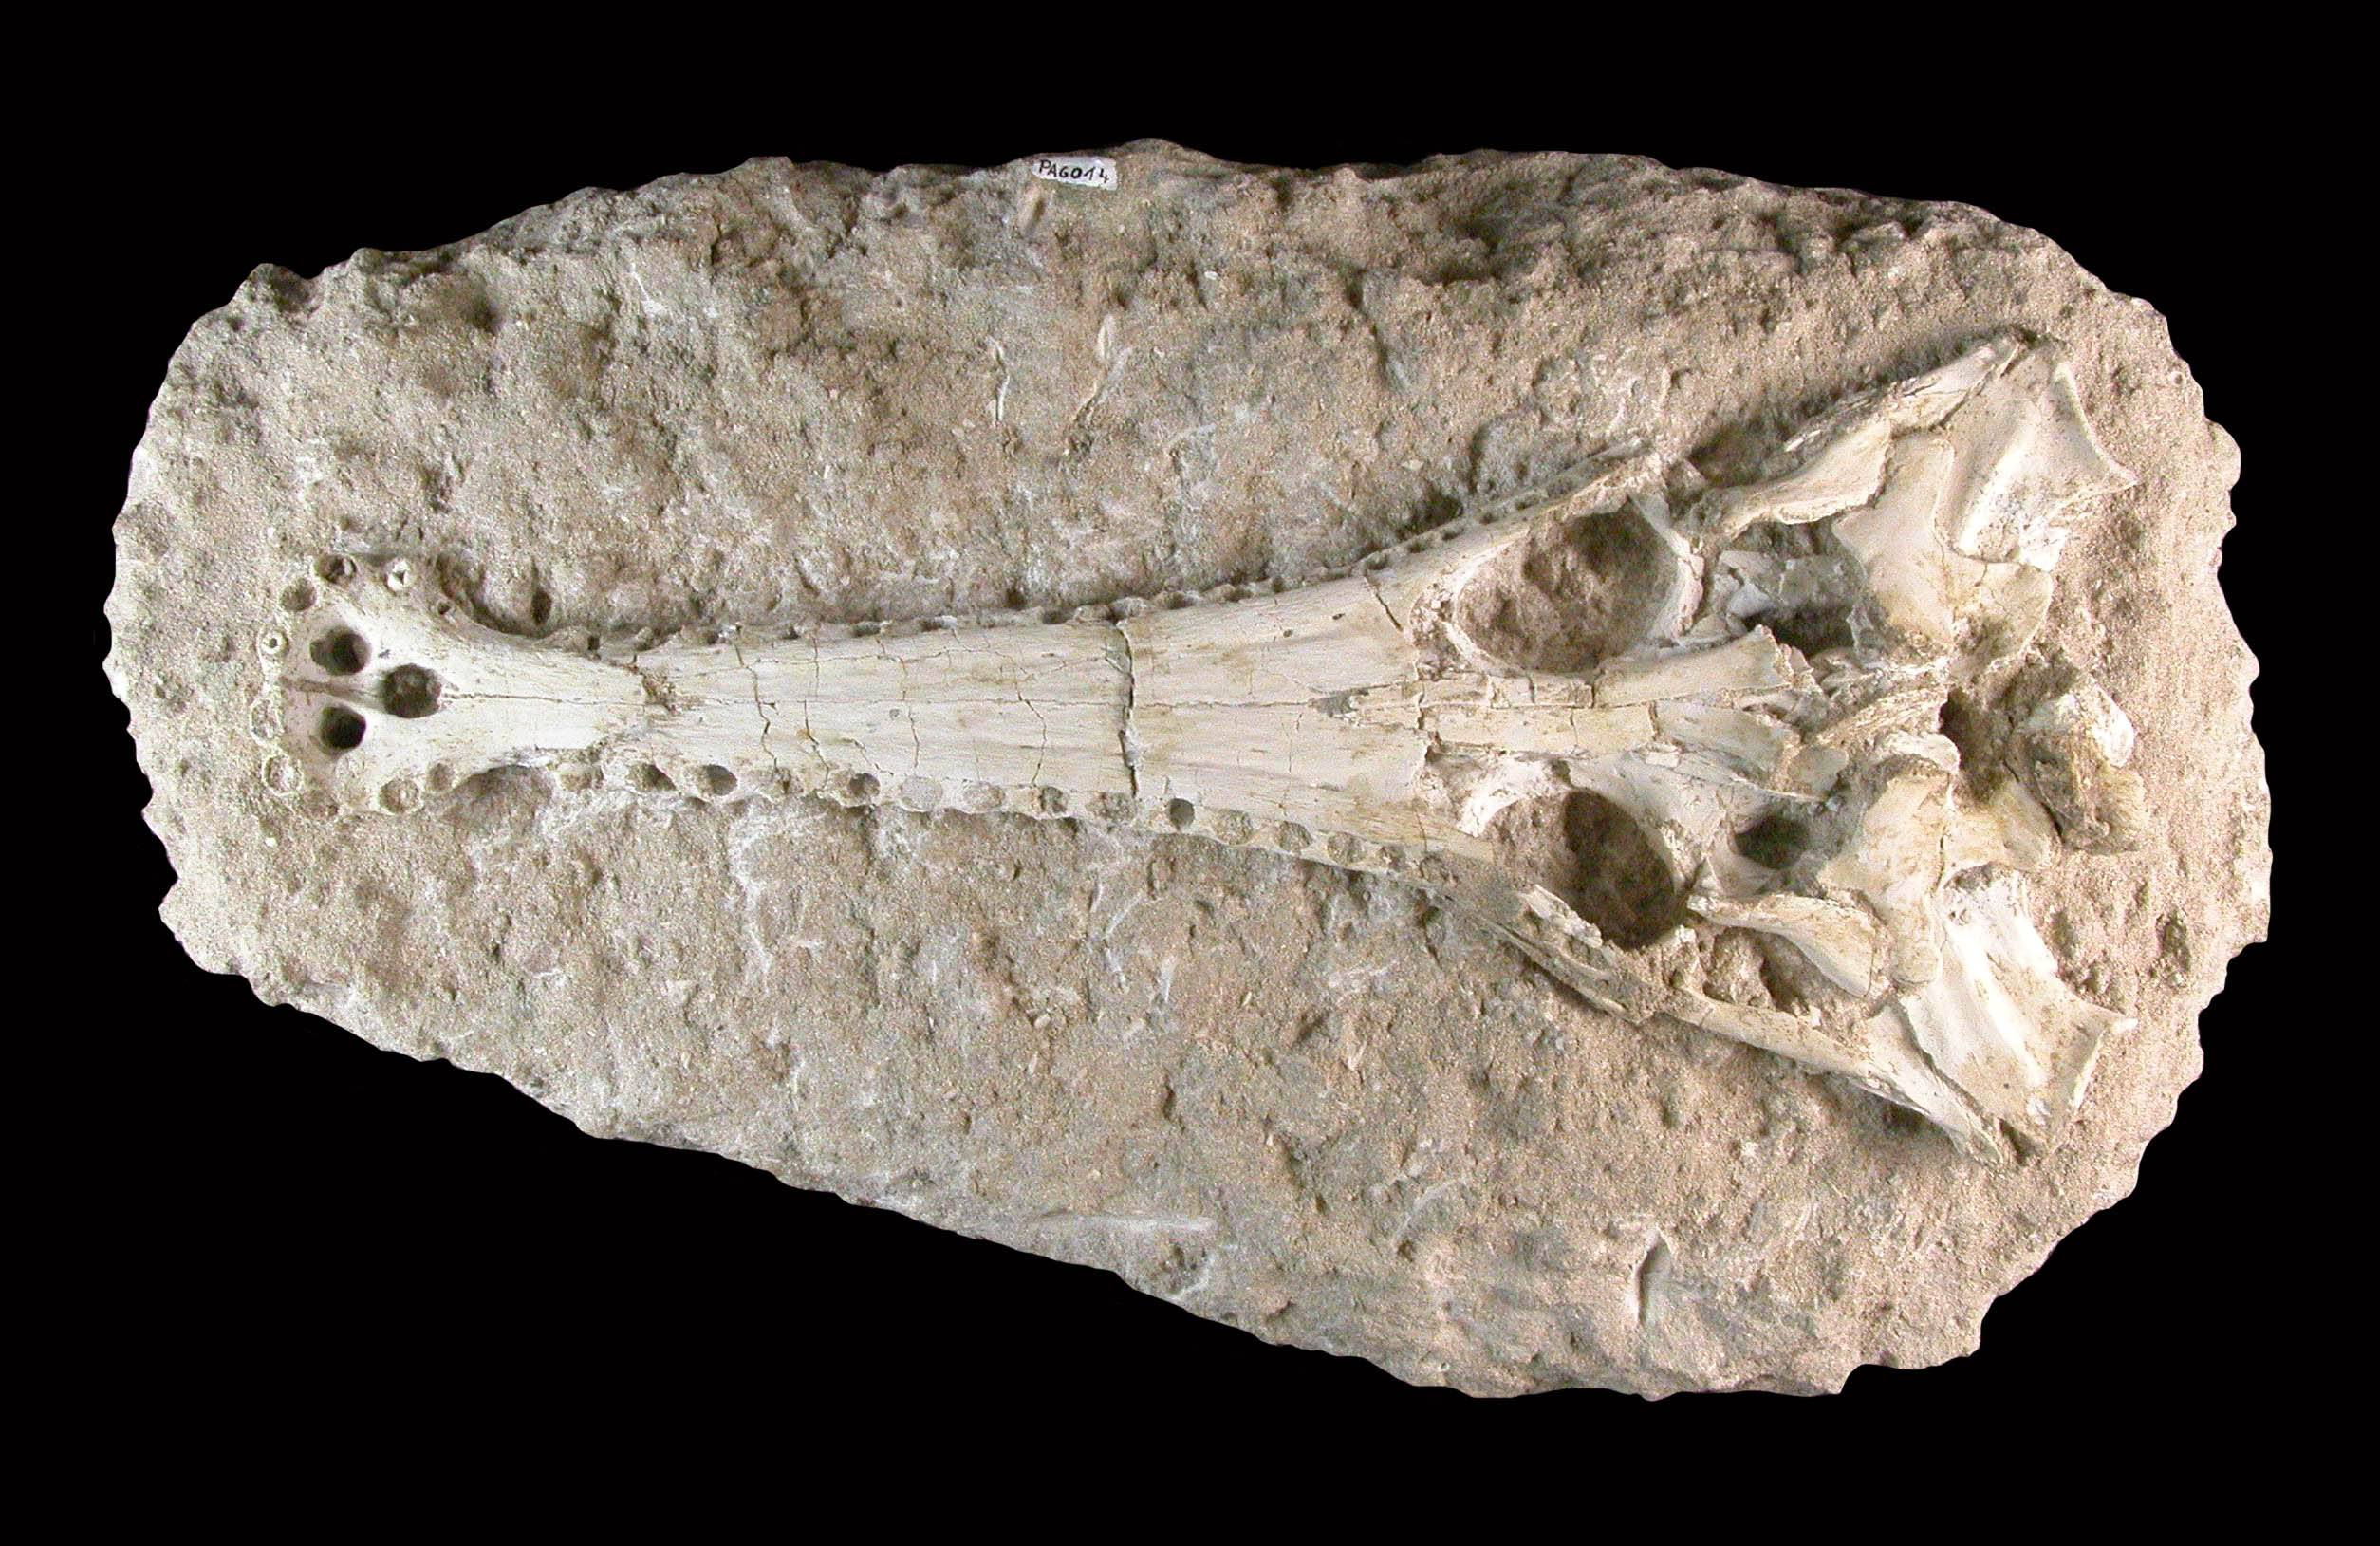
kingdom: Animalia
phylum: Chordata
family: Simoedosauridae
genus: Simoedosaurus
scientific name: Simoedosaurus
